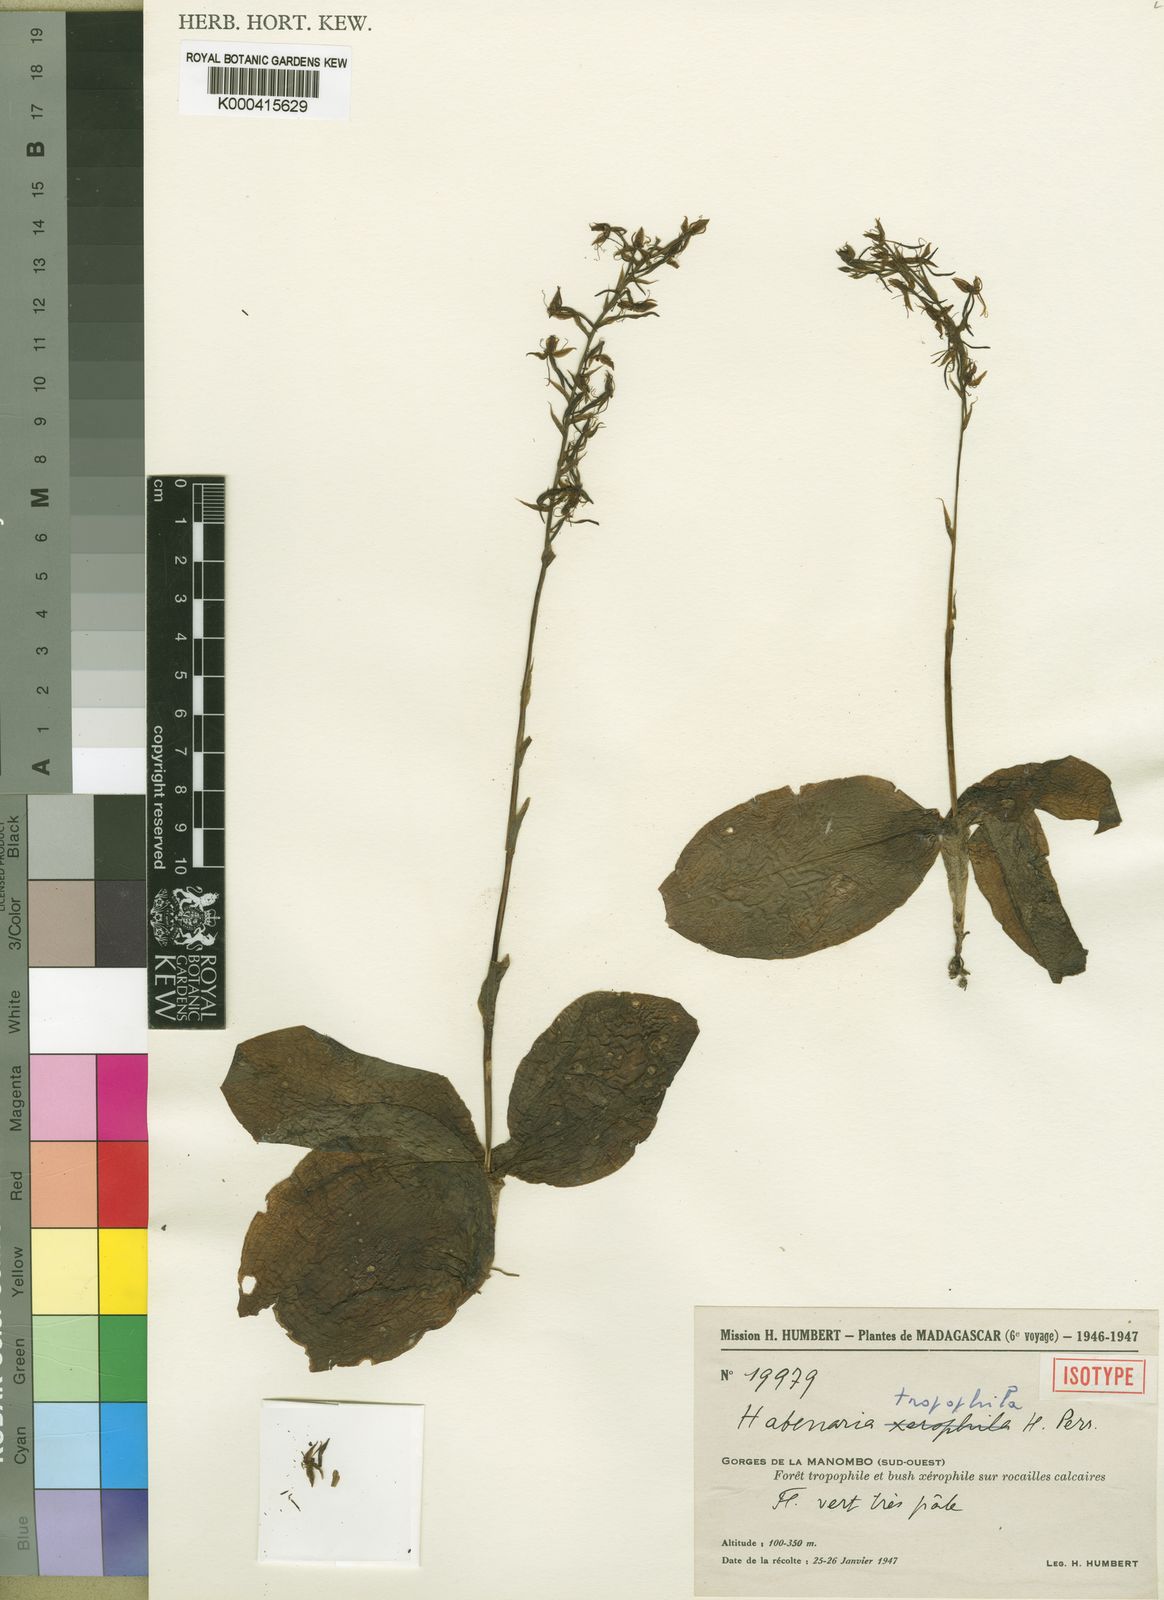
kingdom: Plantae
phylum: Tracheophyta
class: Liliopsida
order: Asparagales
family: Orchidaceae
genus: Habenaria
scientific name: Habenaria tropophila
